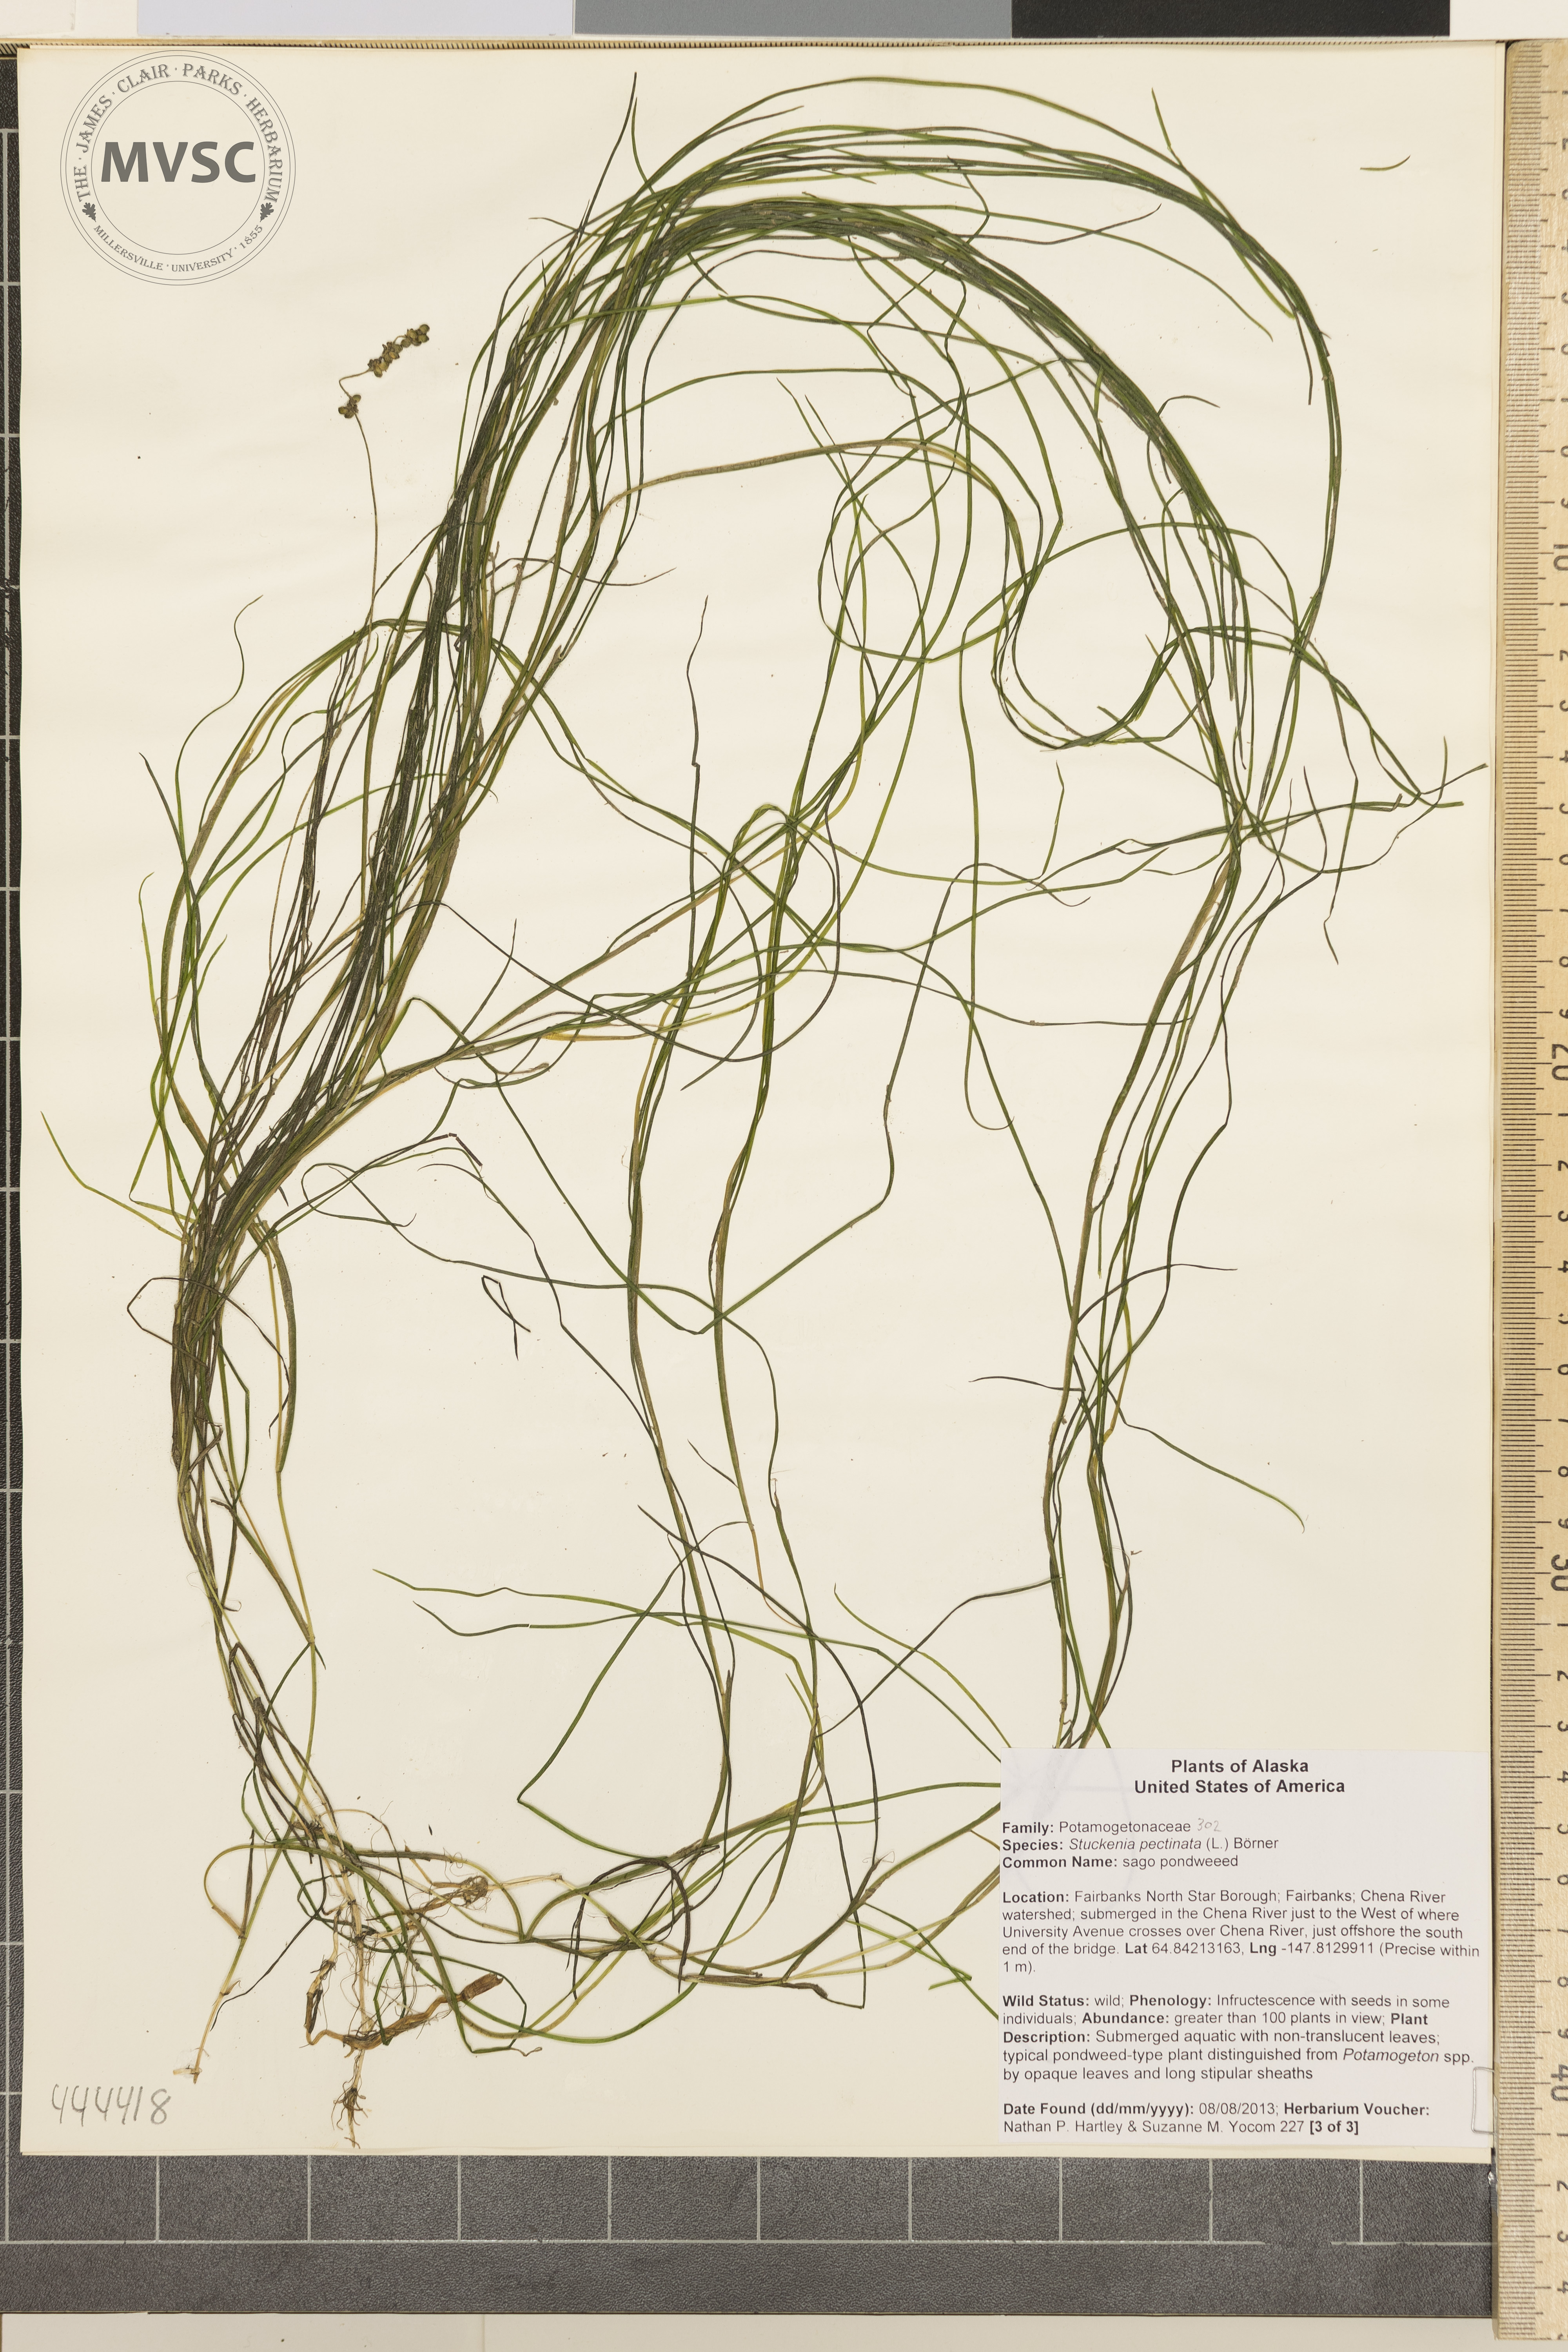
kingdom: Plantae
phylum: Tracheophyta
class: Liliopsida
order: Alismatales
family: Potamogetonaceae
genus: Stuckenia
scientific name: Stuckenia pectinata
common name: Sago pondweed
